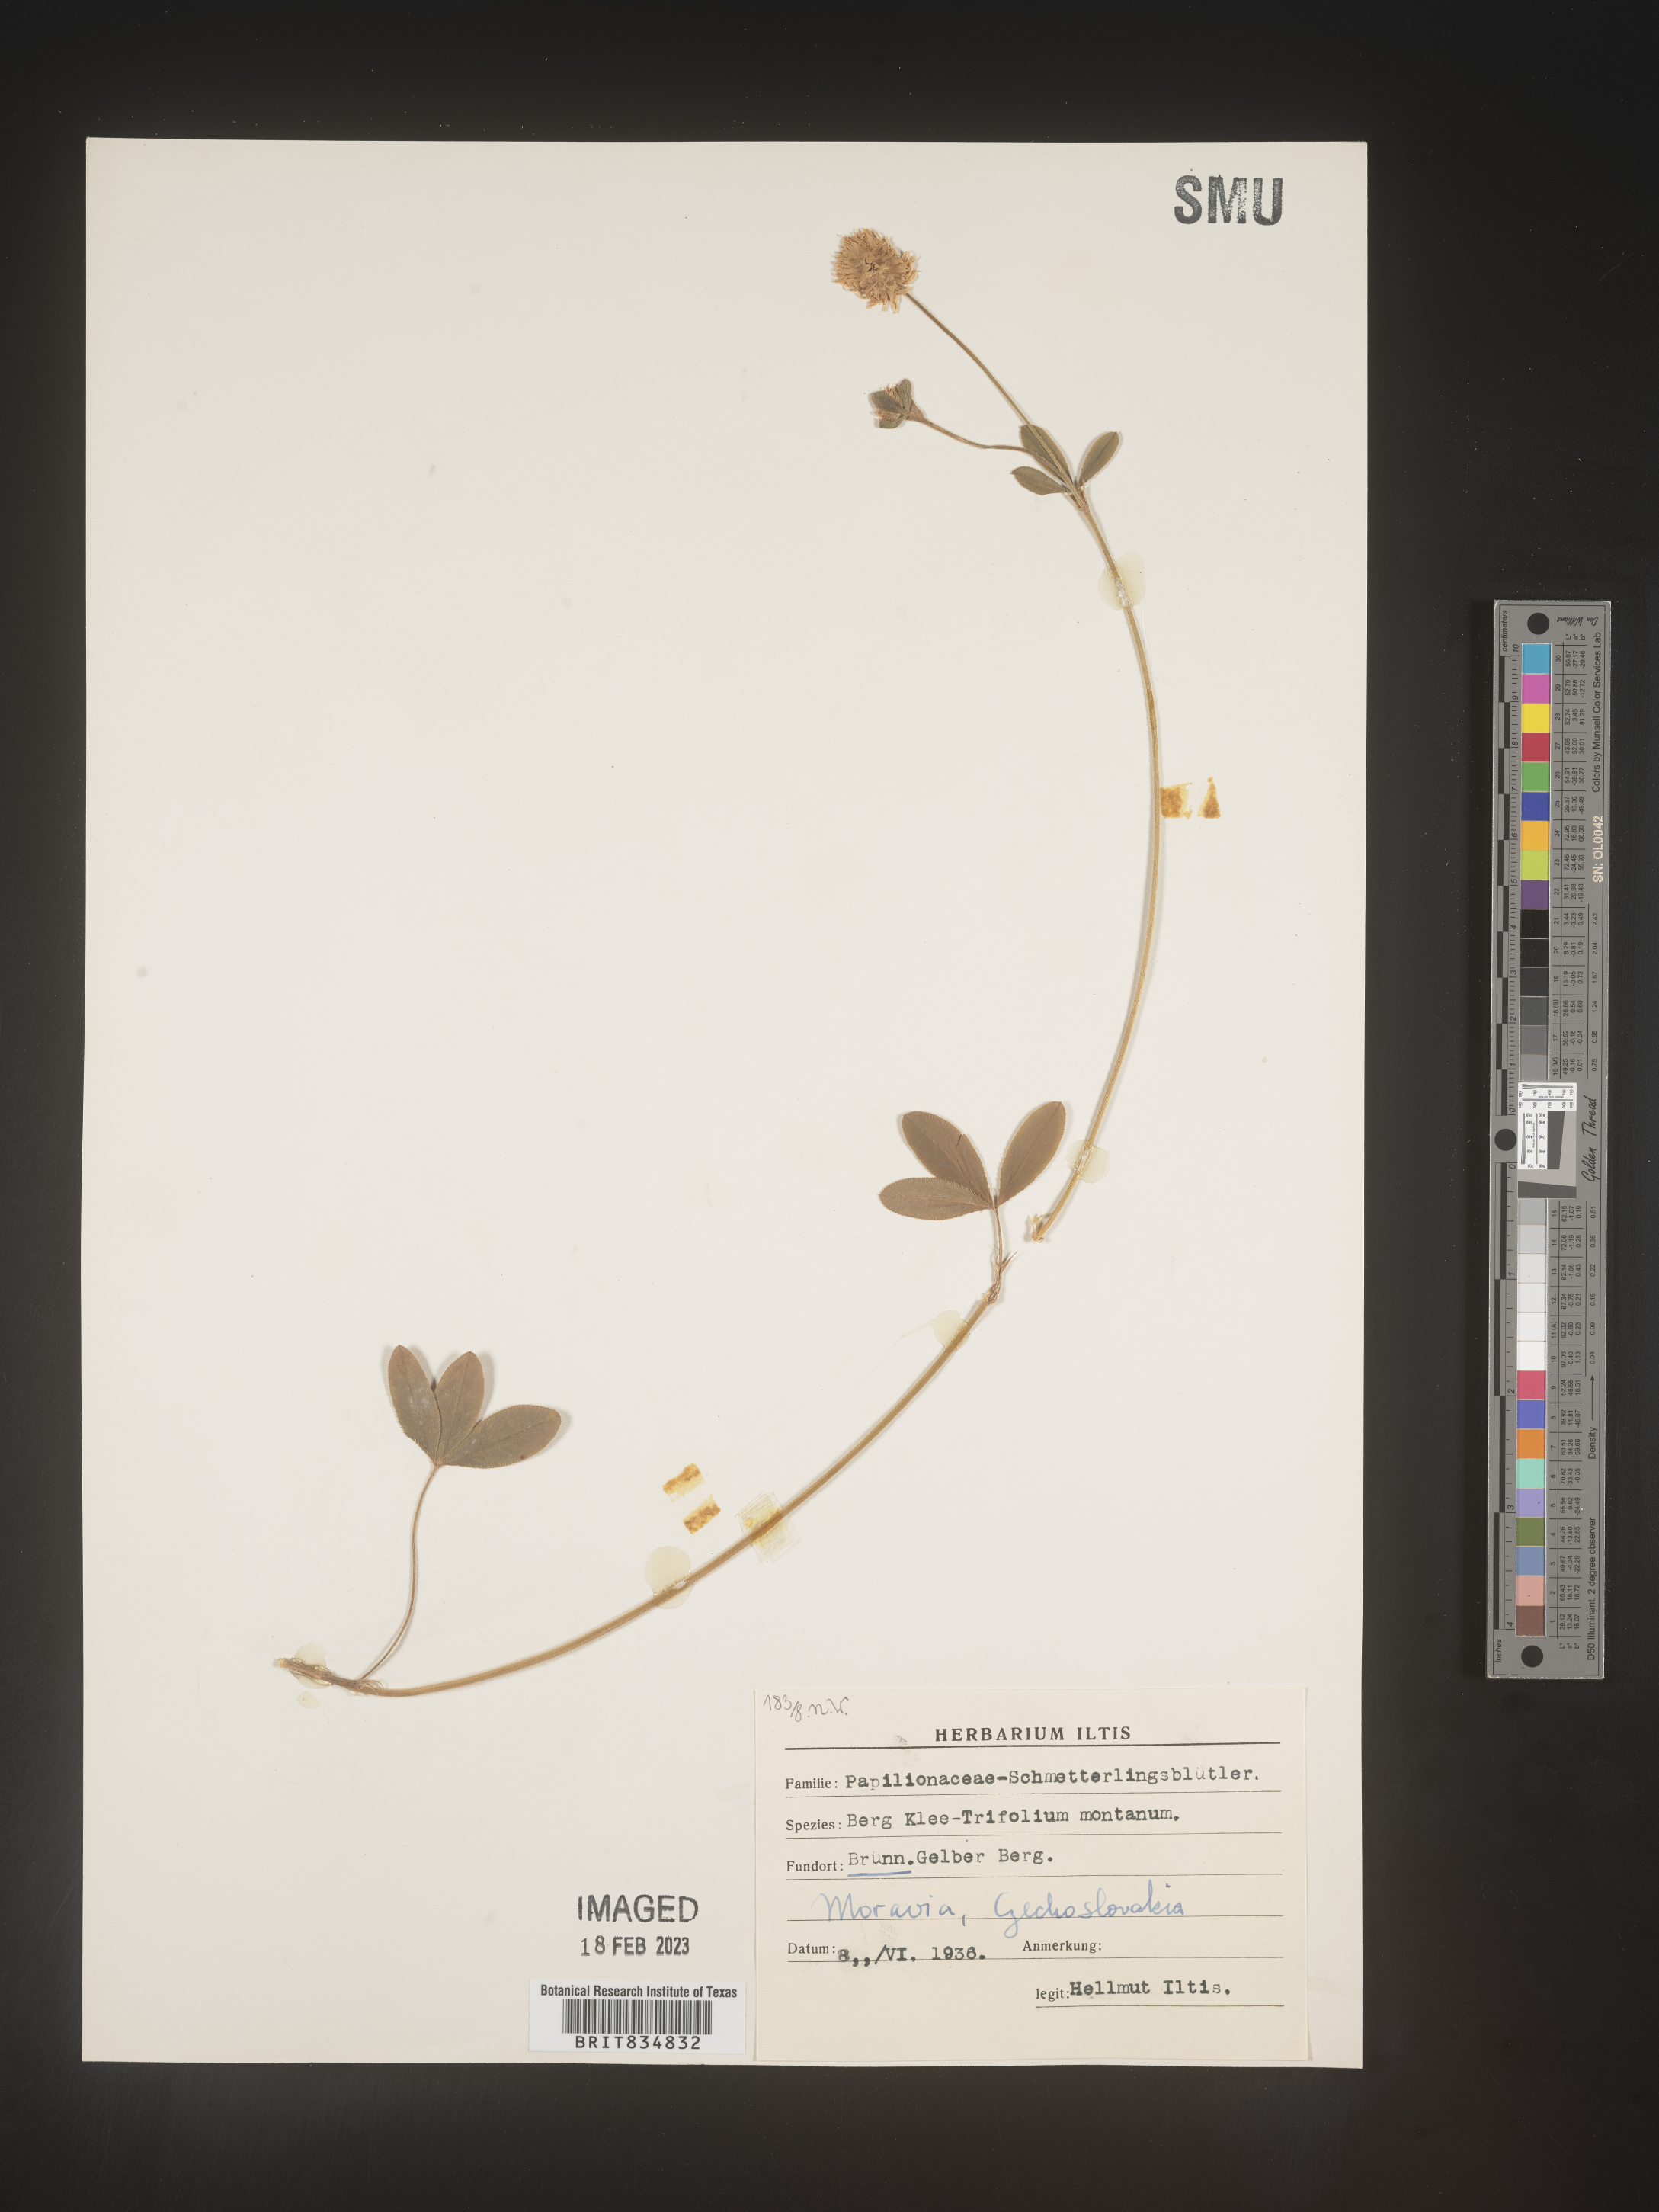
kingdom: Plantae
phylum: Tracheophyta
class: Magnoliopsida
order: Fabales
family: Fabaceae
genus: Trifolium
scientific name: Trifolium
